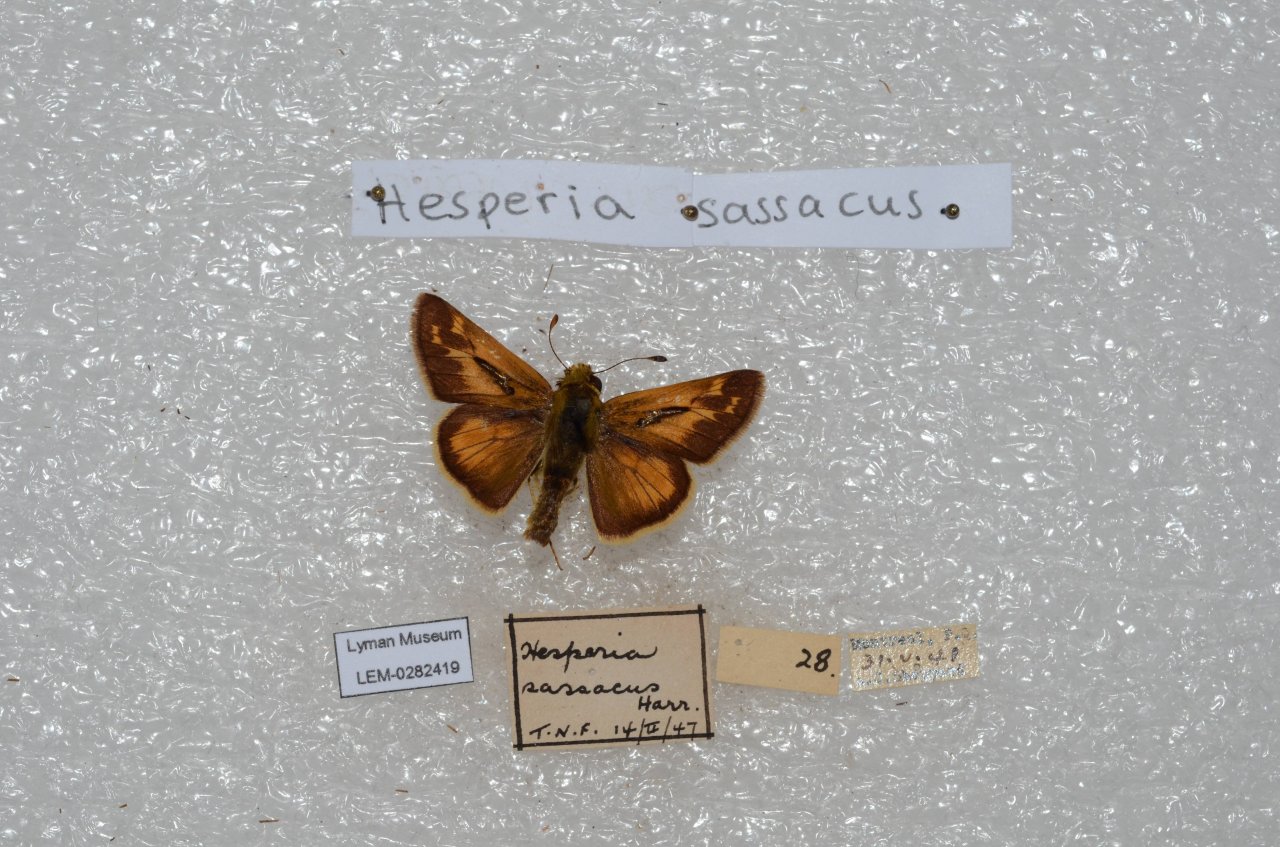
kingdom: Animalia
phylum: Arthropoda
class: Insecta
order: Lepidoptera
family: Hesperiidae
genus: Hesperia
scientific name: Hesperia sassacus
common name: Sassacus Skipper
